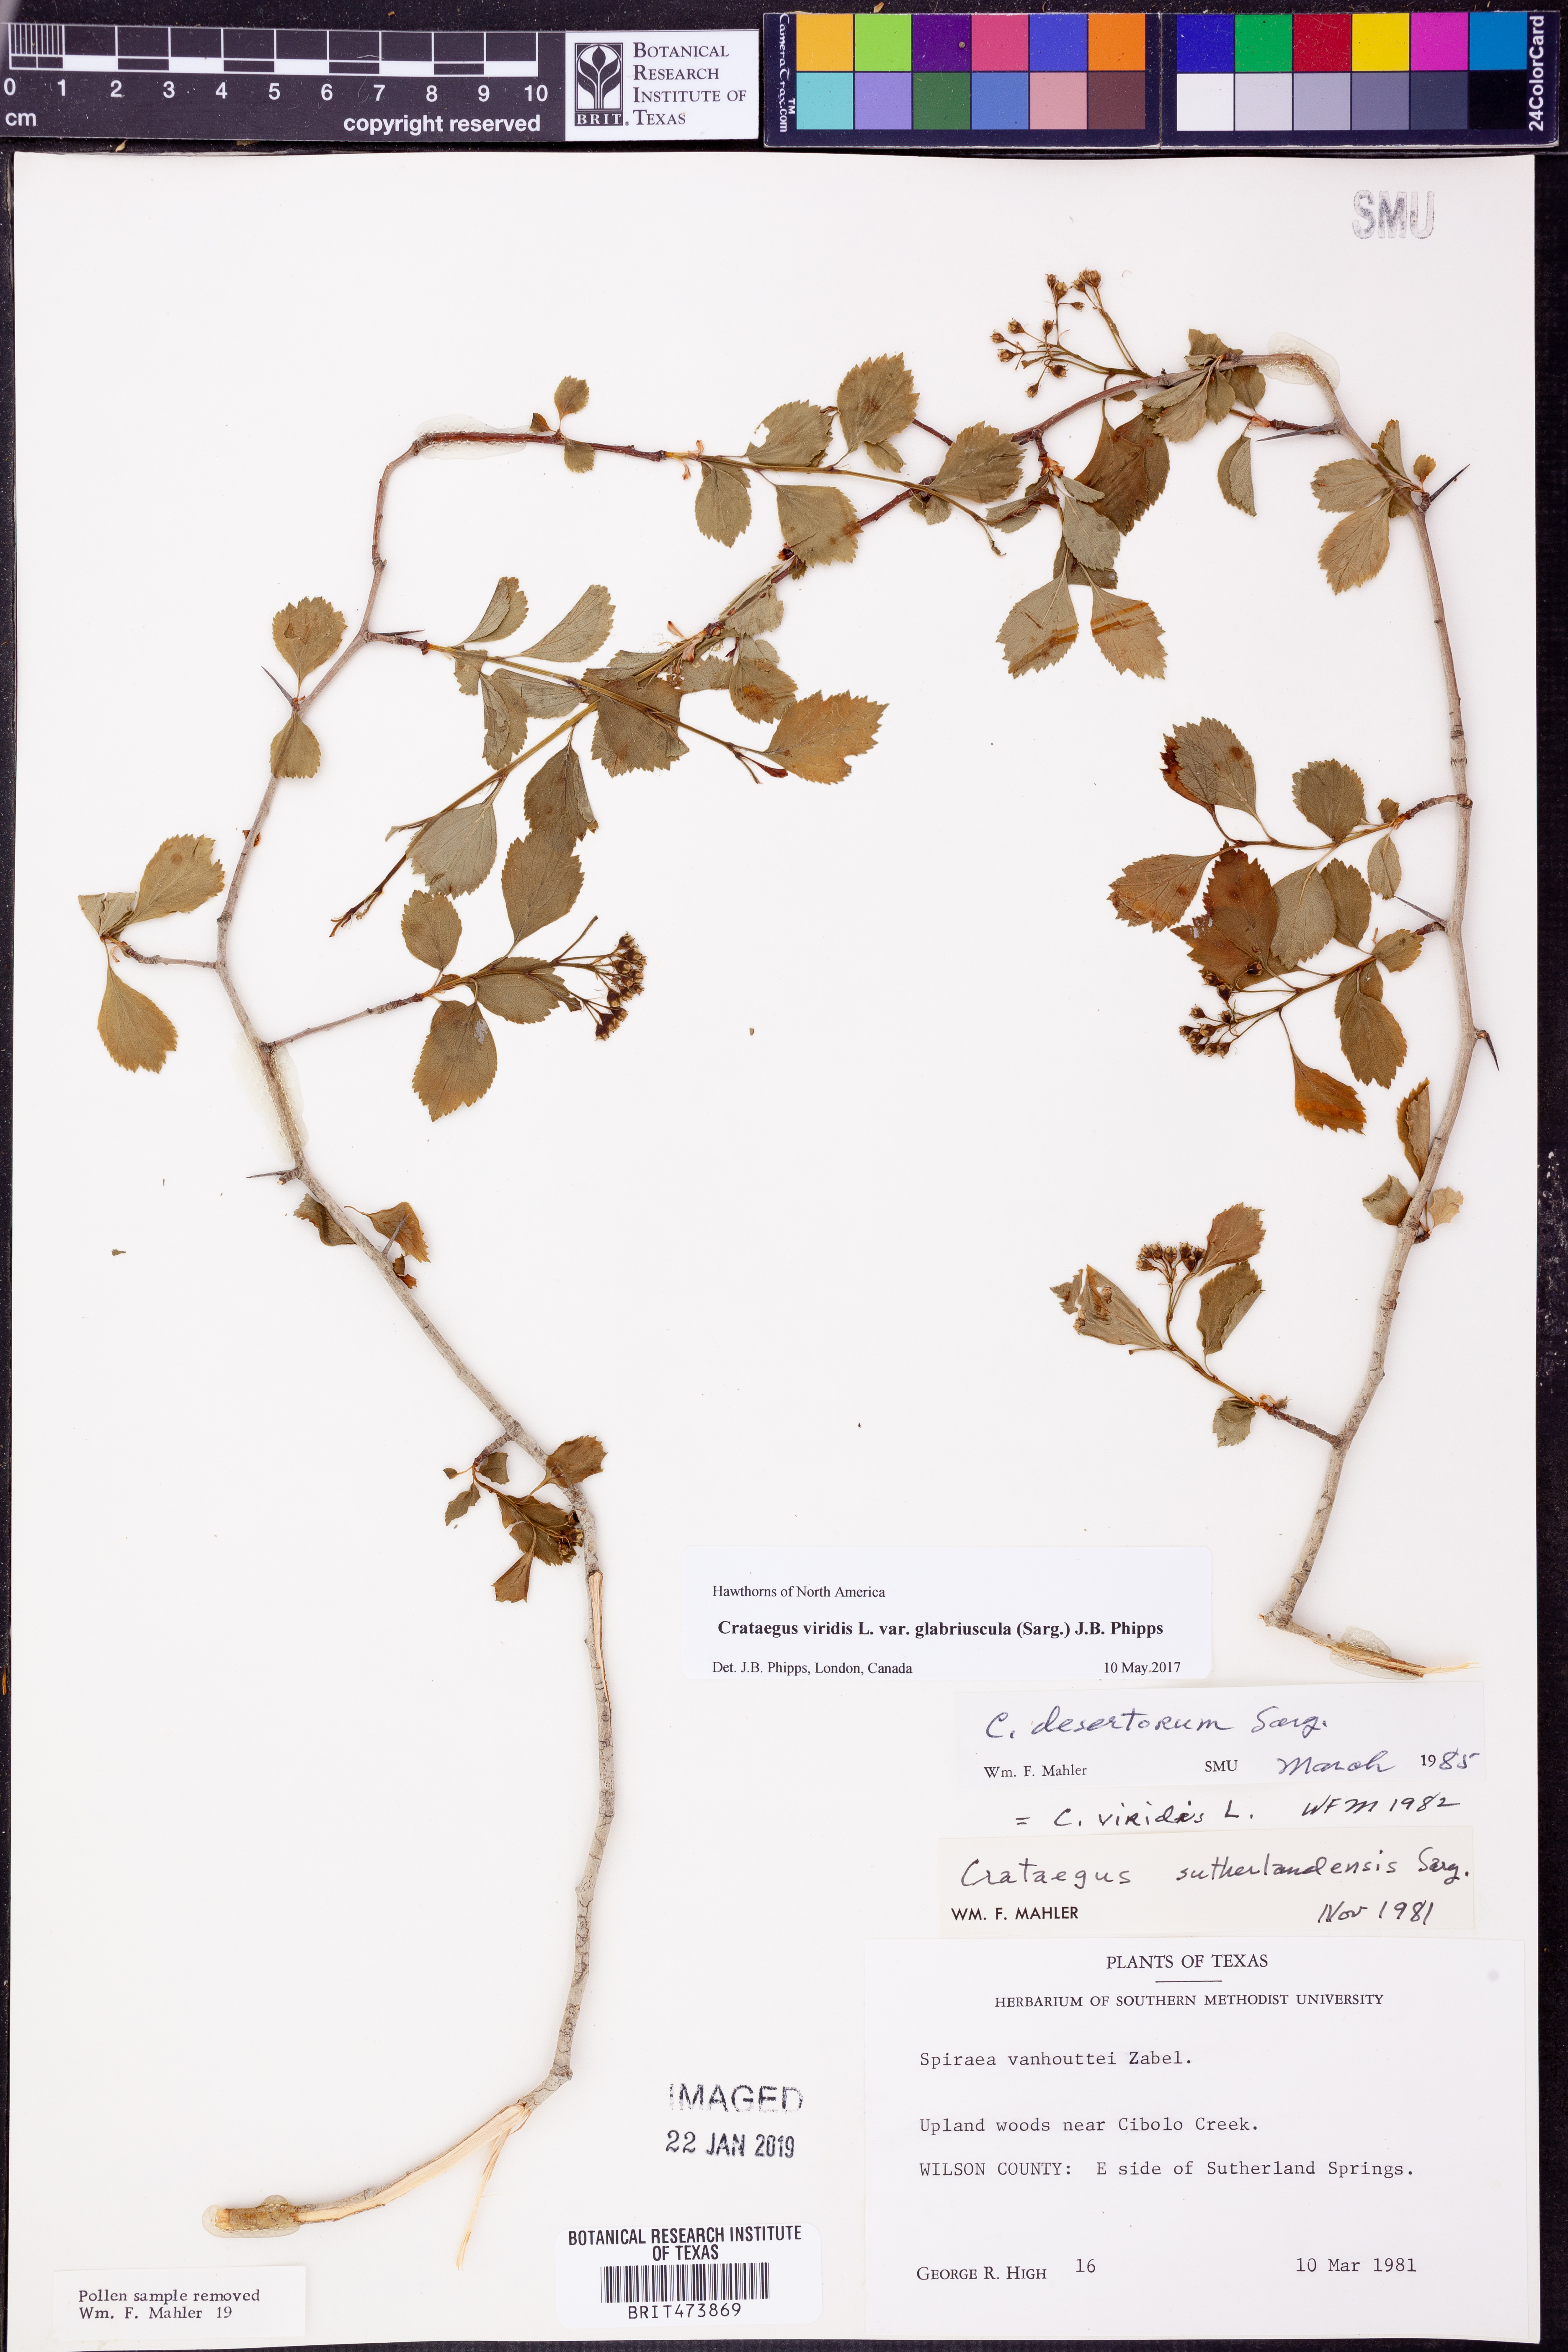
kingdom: Plantae
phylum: Tracheophyta
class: Magnoliopsida
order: Rosales
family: Rosaceae
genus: Crataegus
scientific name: Crataegus viridis
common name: Southernthorn
